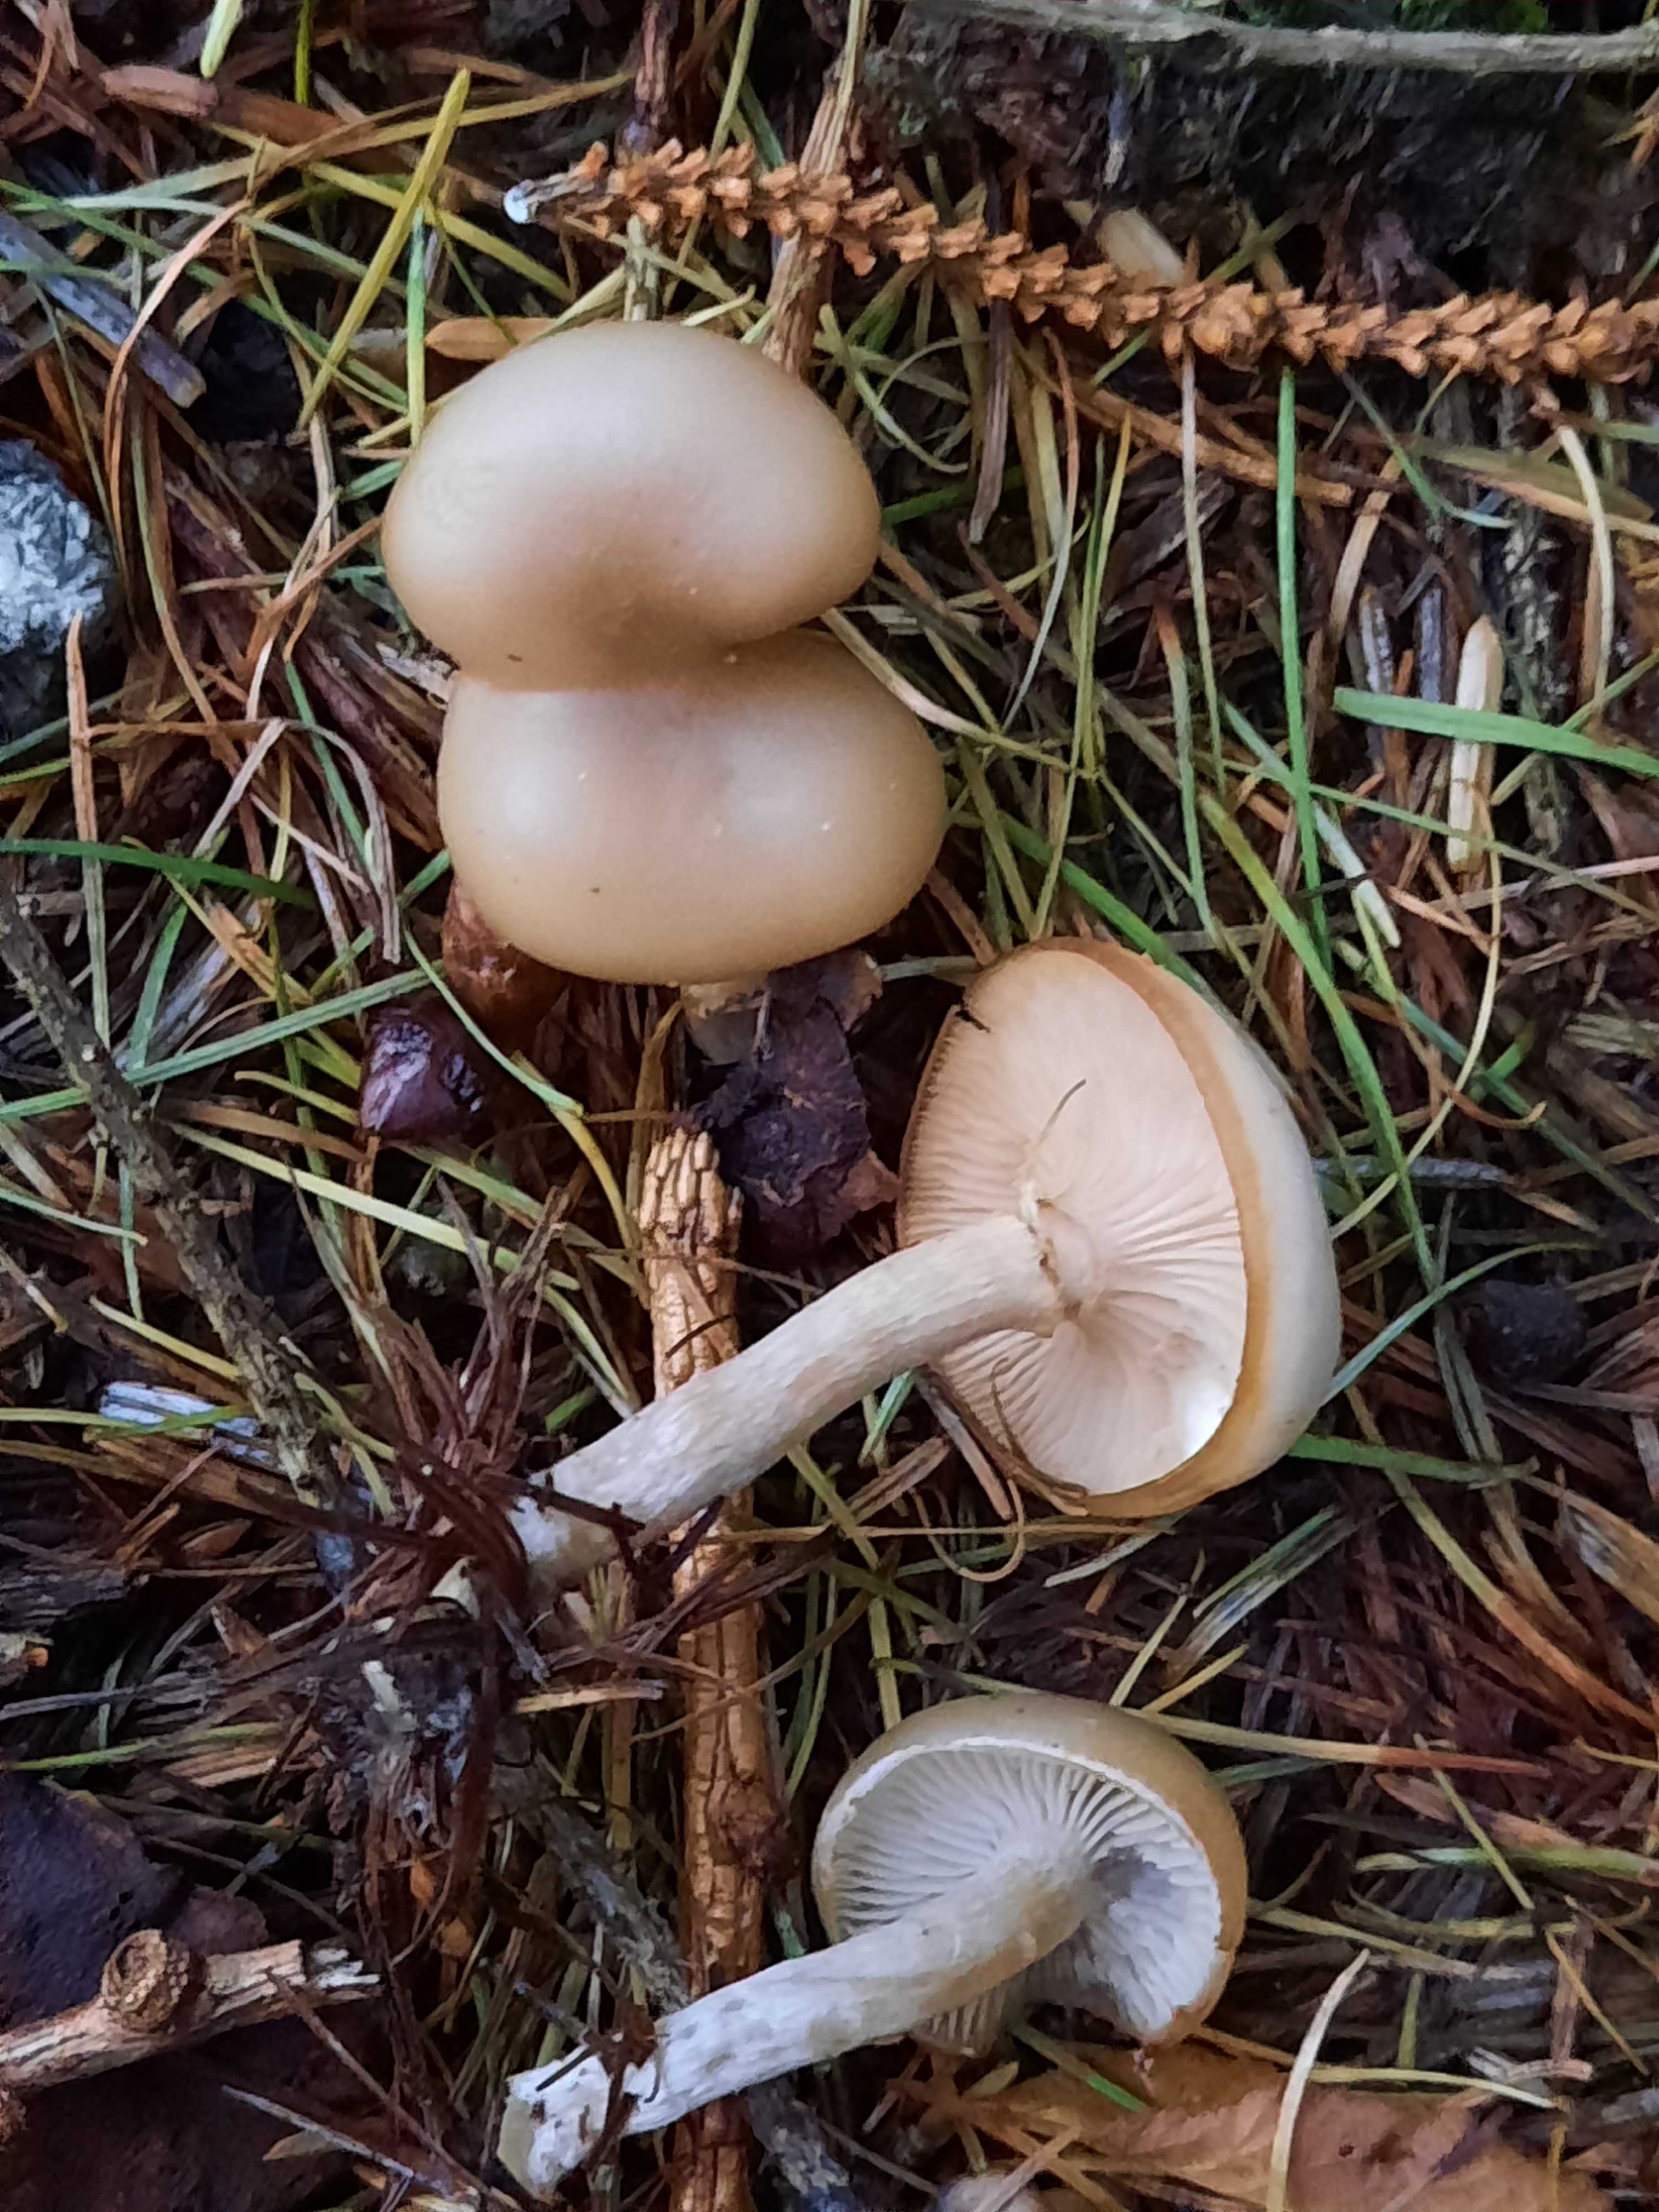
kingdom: Fungi
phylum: Basidiomycota
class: Agaricomycetes
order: Agaricales
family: Tricholomataceae
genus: Clitocybe
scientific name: Clitocybe fragrans
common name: vellugtende tragthat
